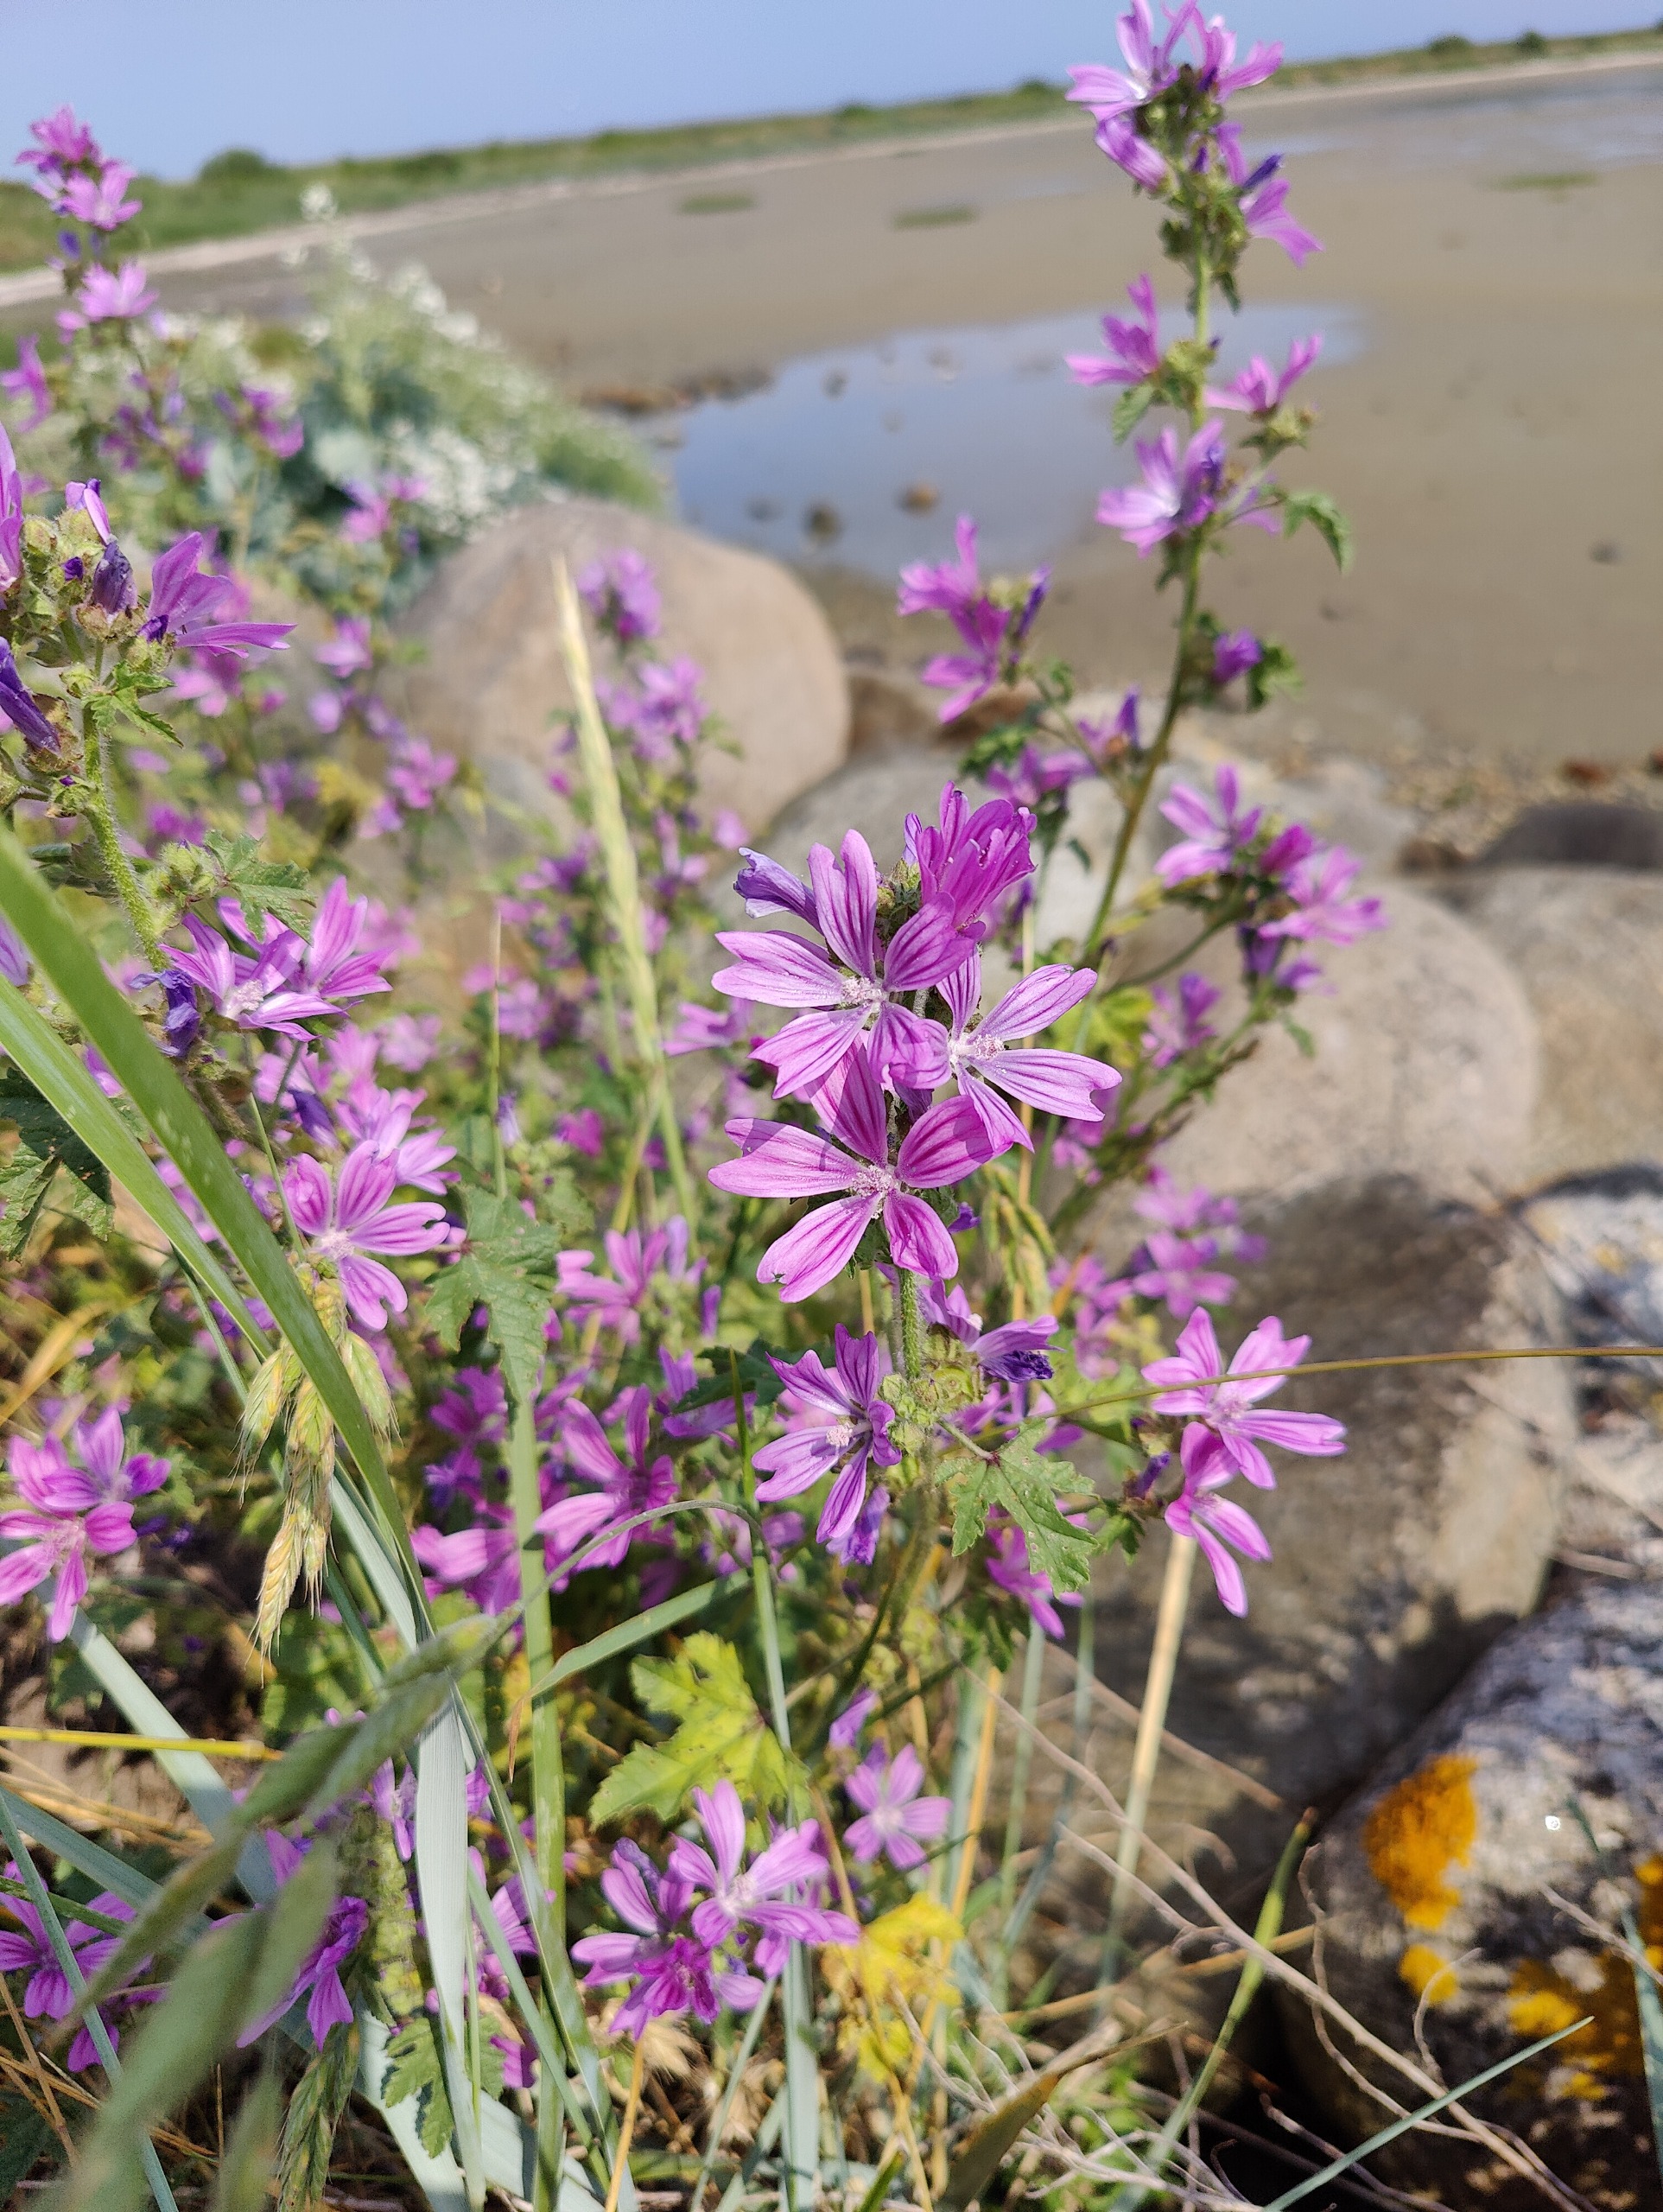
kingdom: Plantae
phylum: Tracheophyta
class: Magnoliopsida
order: Malvales
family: Malvaceae
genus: Malva
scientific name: Malva sylvestris
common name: Almindelig katost
